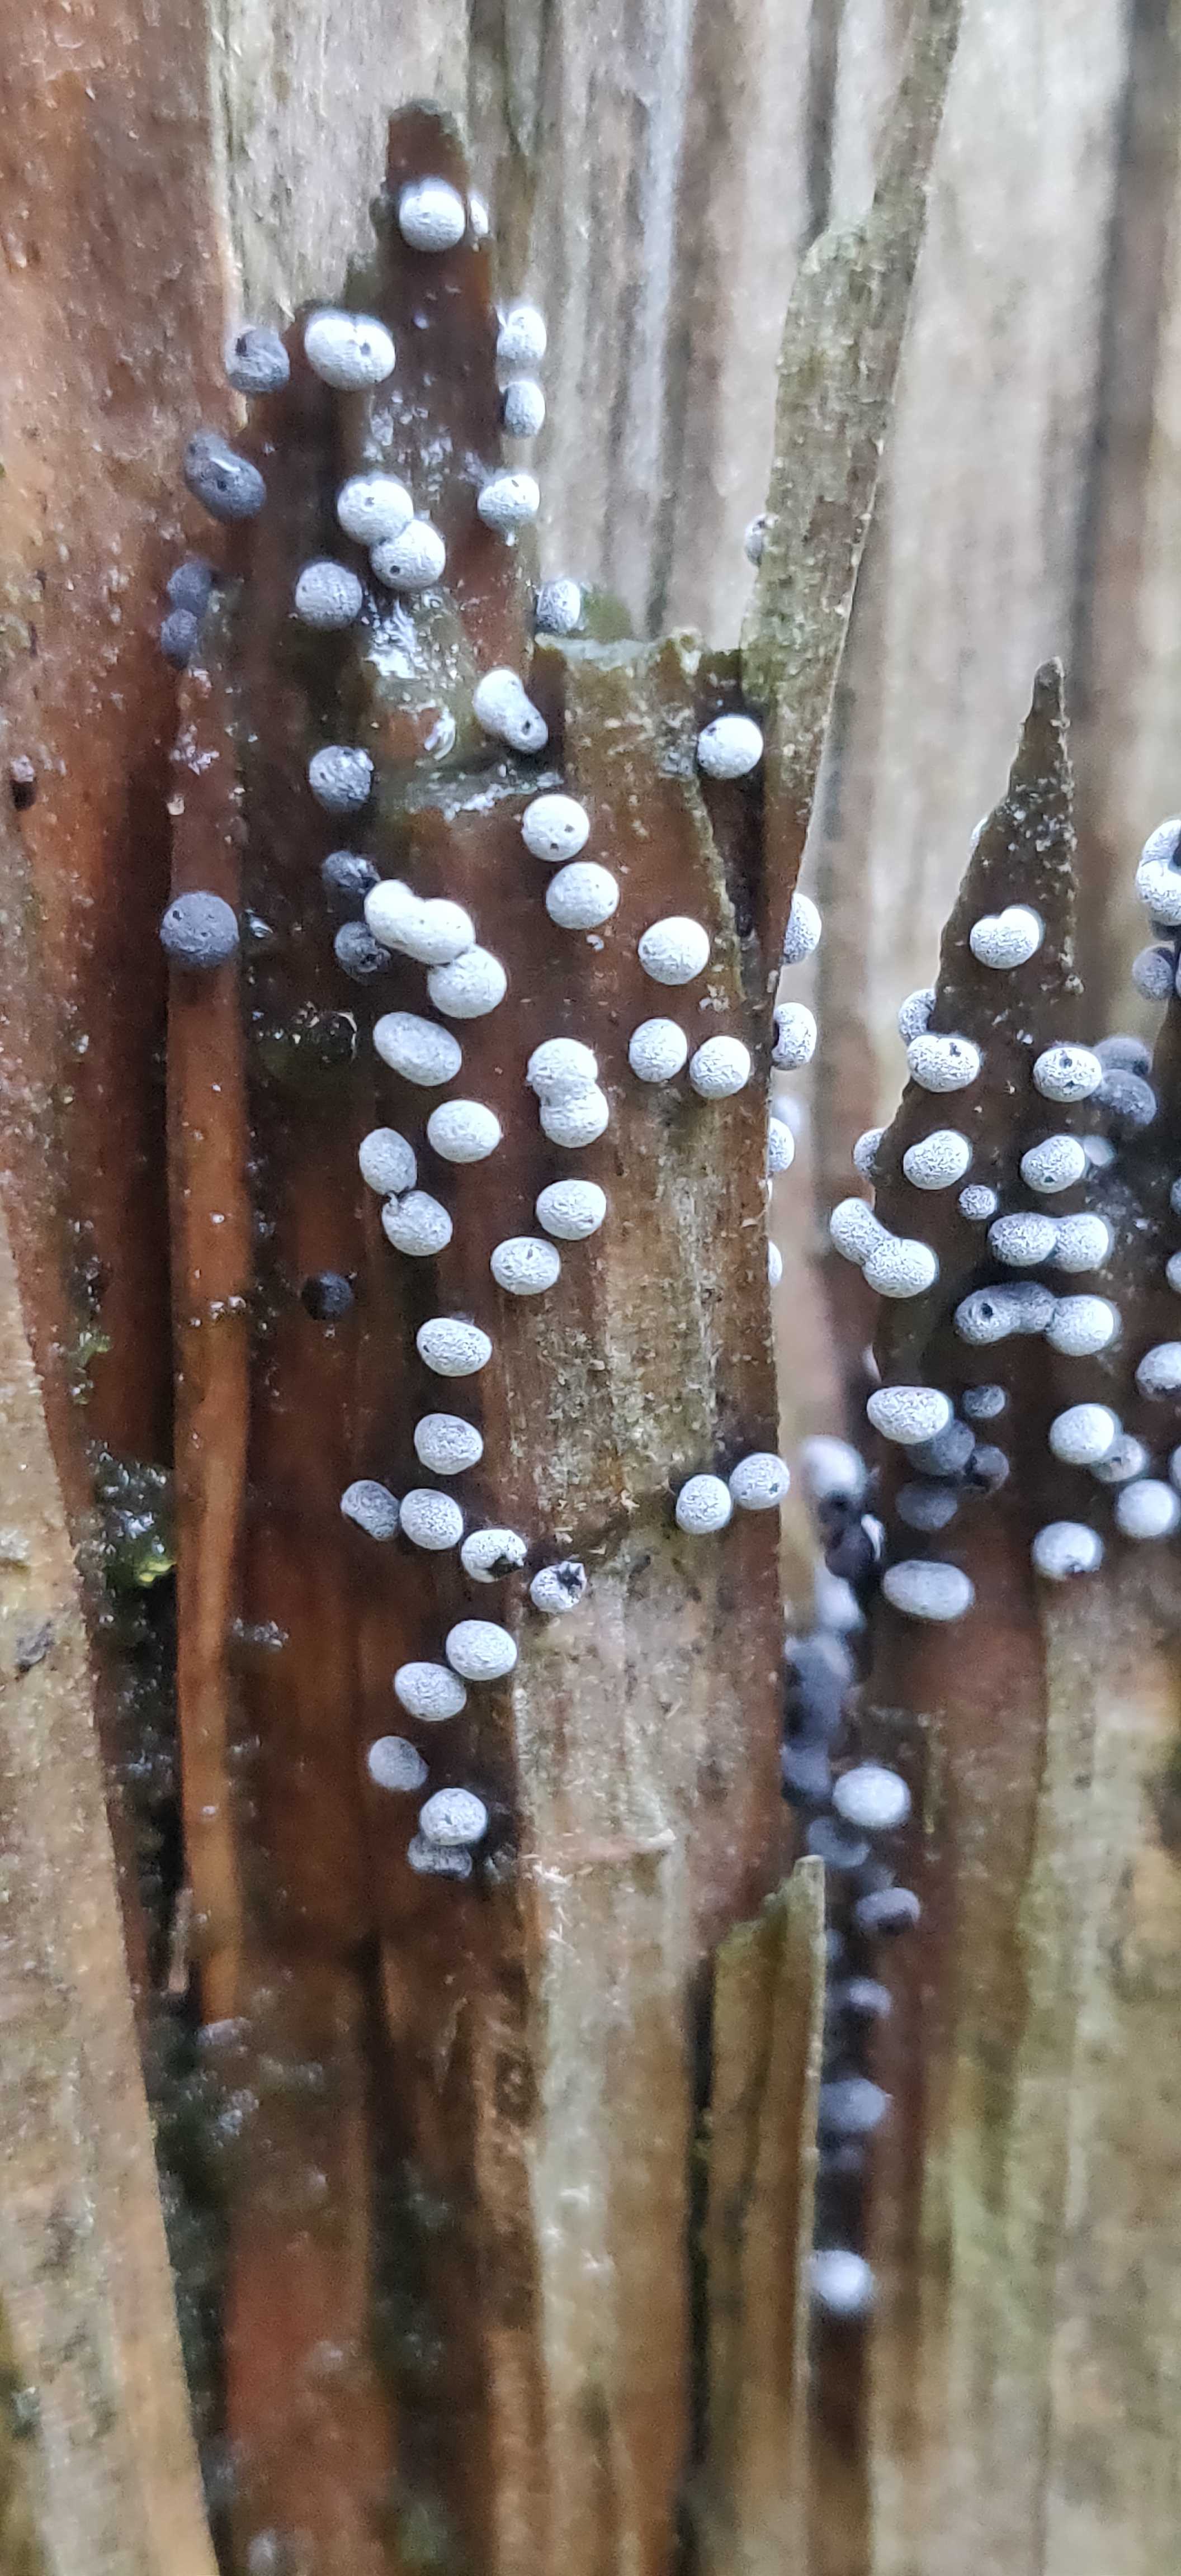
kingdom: Protozoa
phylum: Mycetozoa
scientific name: Mycetozoa
